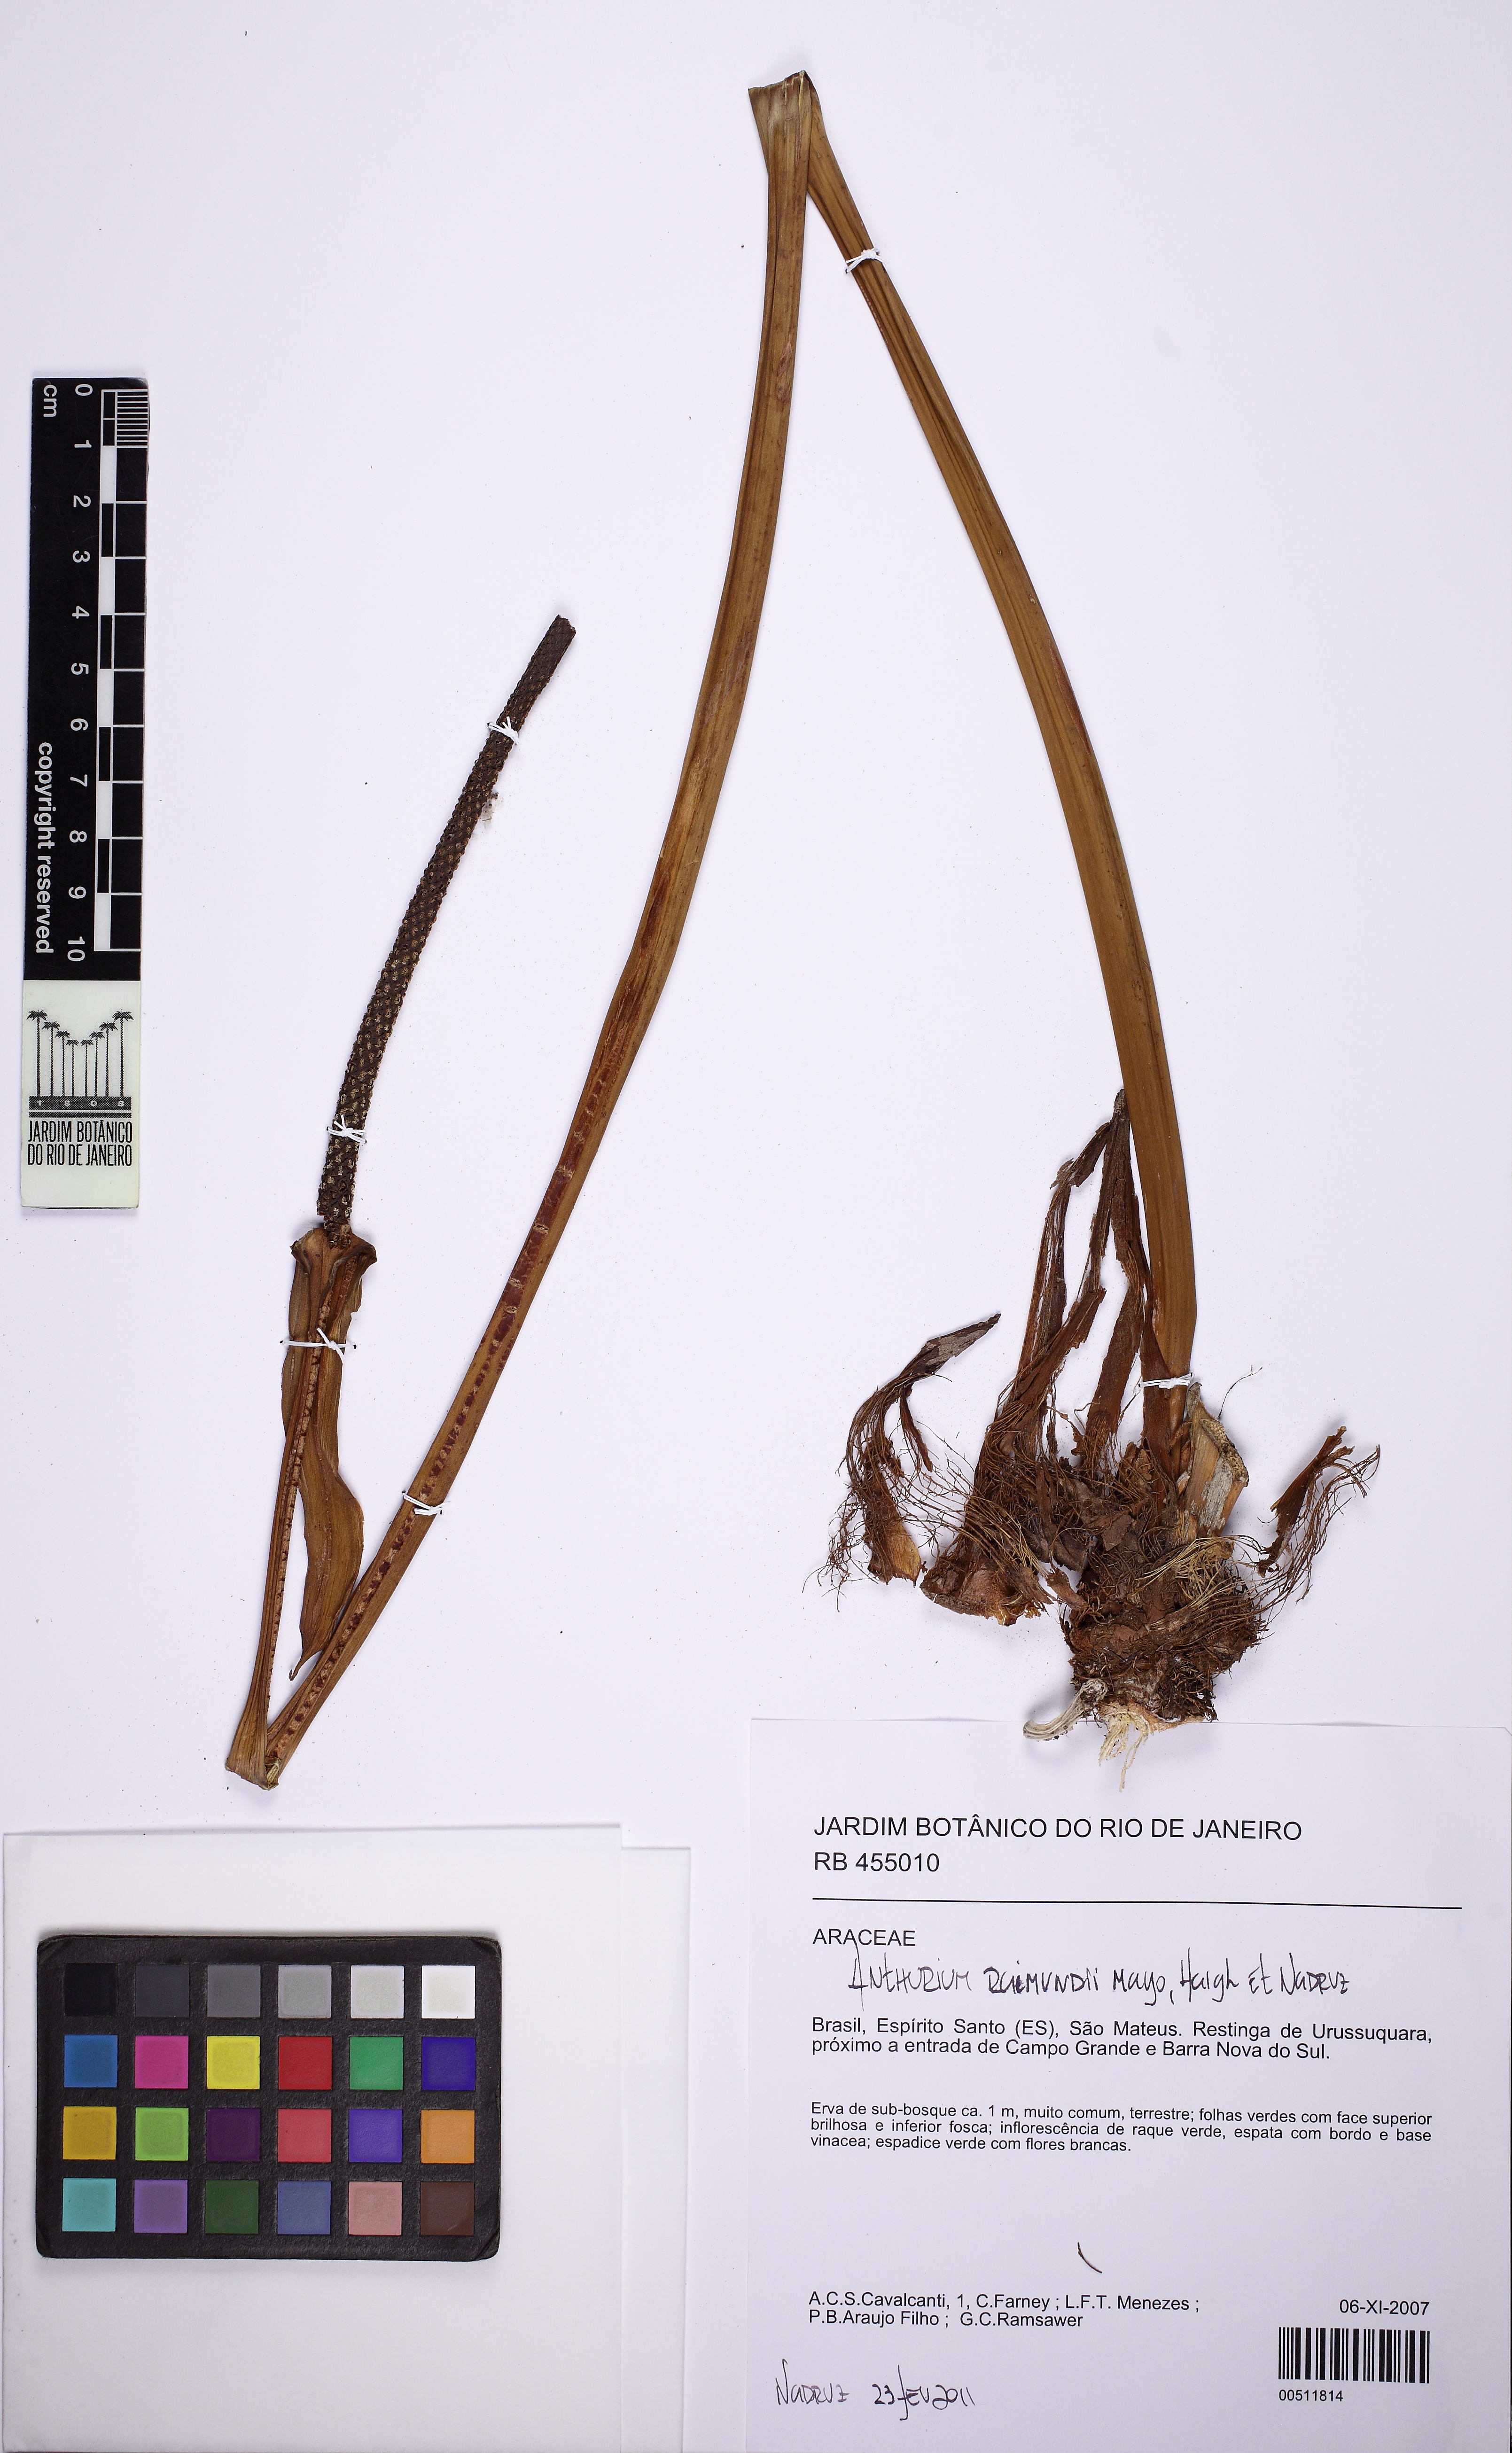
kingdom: Plantae
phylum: Tracheophyta
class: Liliopsida
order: Alismatales
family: Araceae
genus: Anthurium
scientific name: Anthurium raimundii
